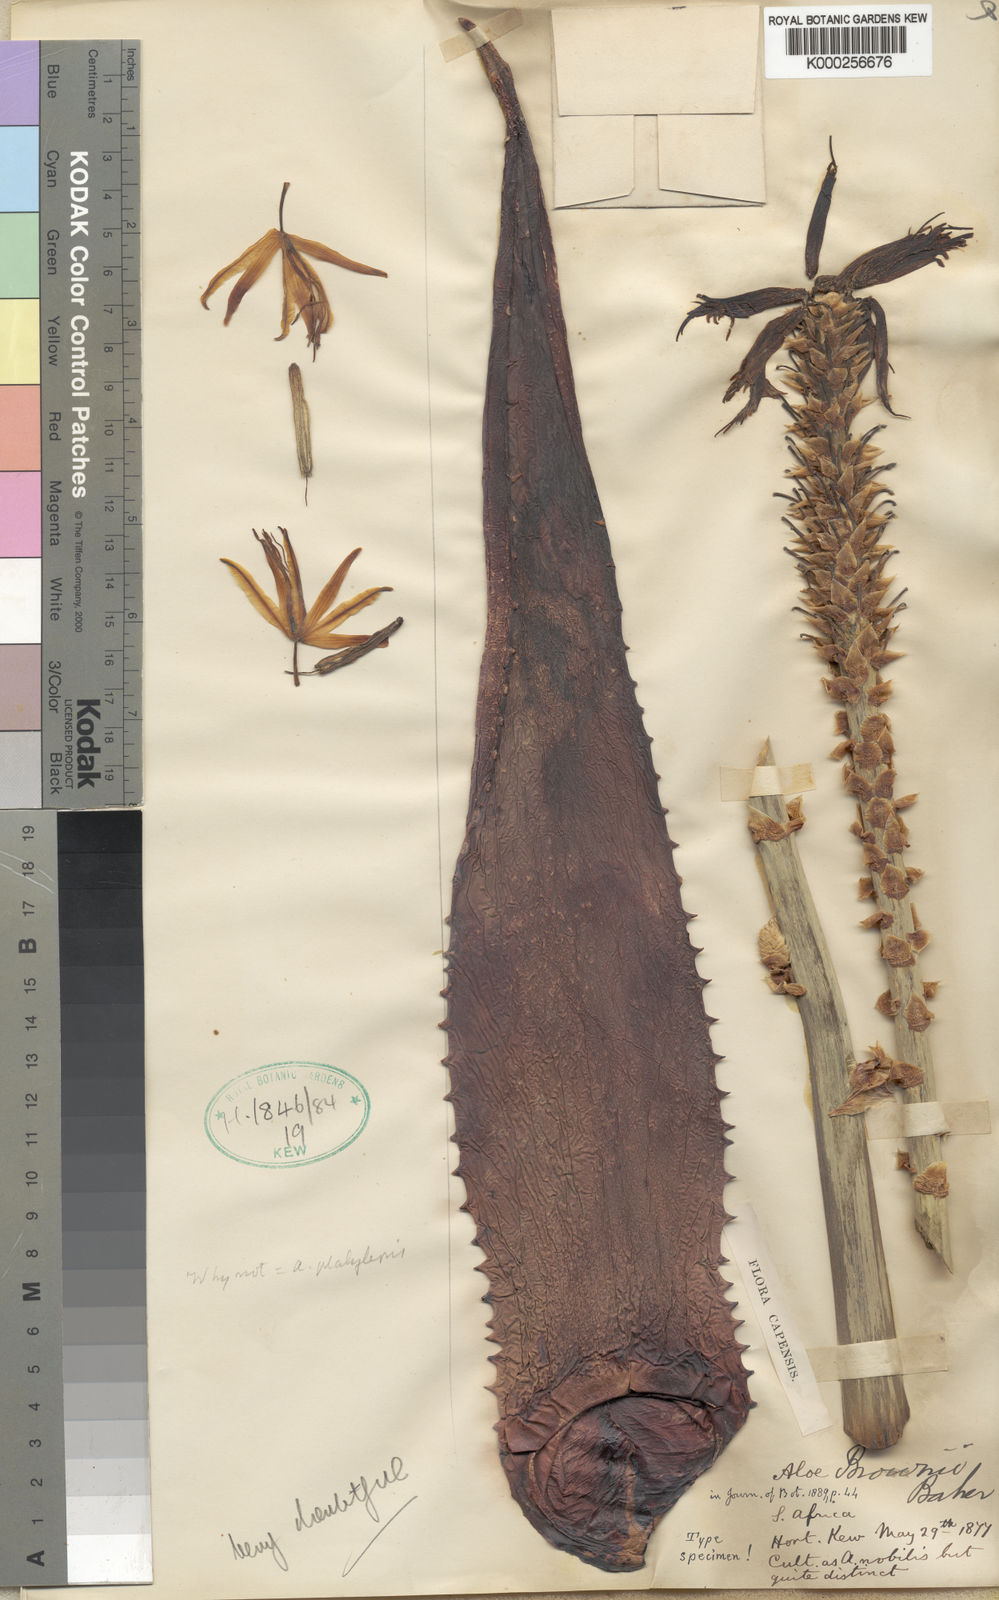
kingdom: Plantae
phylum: Tracheophyta
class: Liliopsida
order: Asparagales
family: Asphodelaceae
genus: Aloe
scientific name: Aloe brownii
